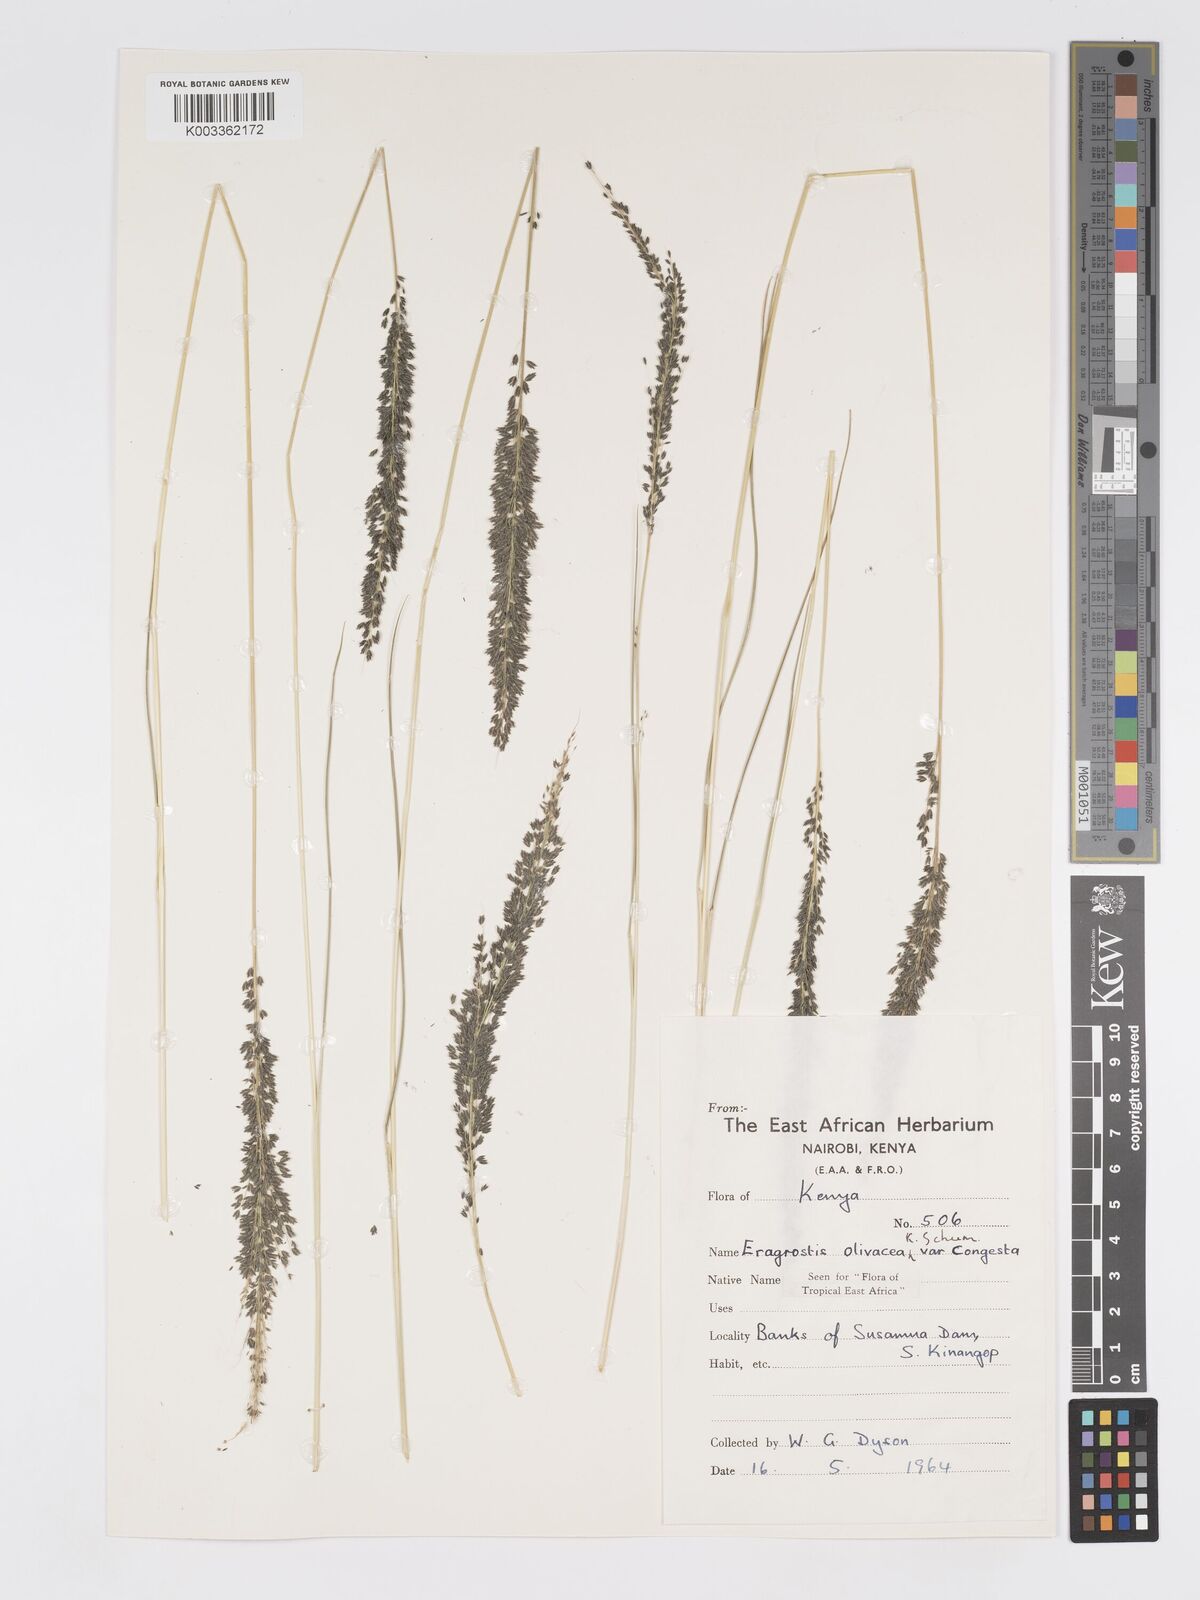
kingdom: Plantae
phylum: Tracheophyta
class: Liliopsida
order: Poales
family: Poaceae
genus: Eragrostis
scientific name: Eragrostis olivacea
